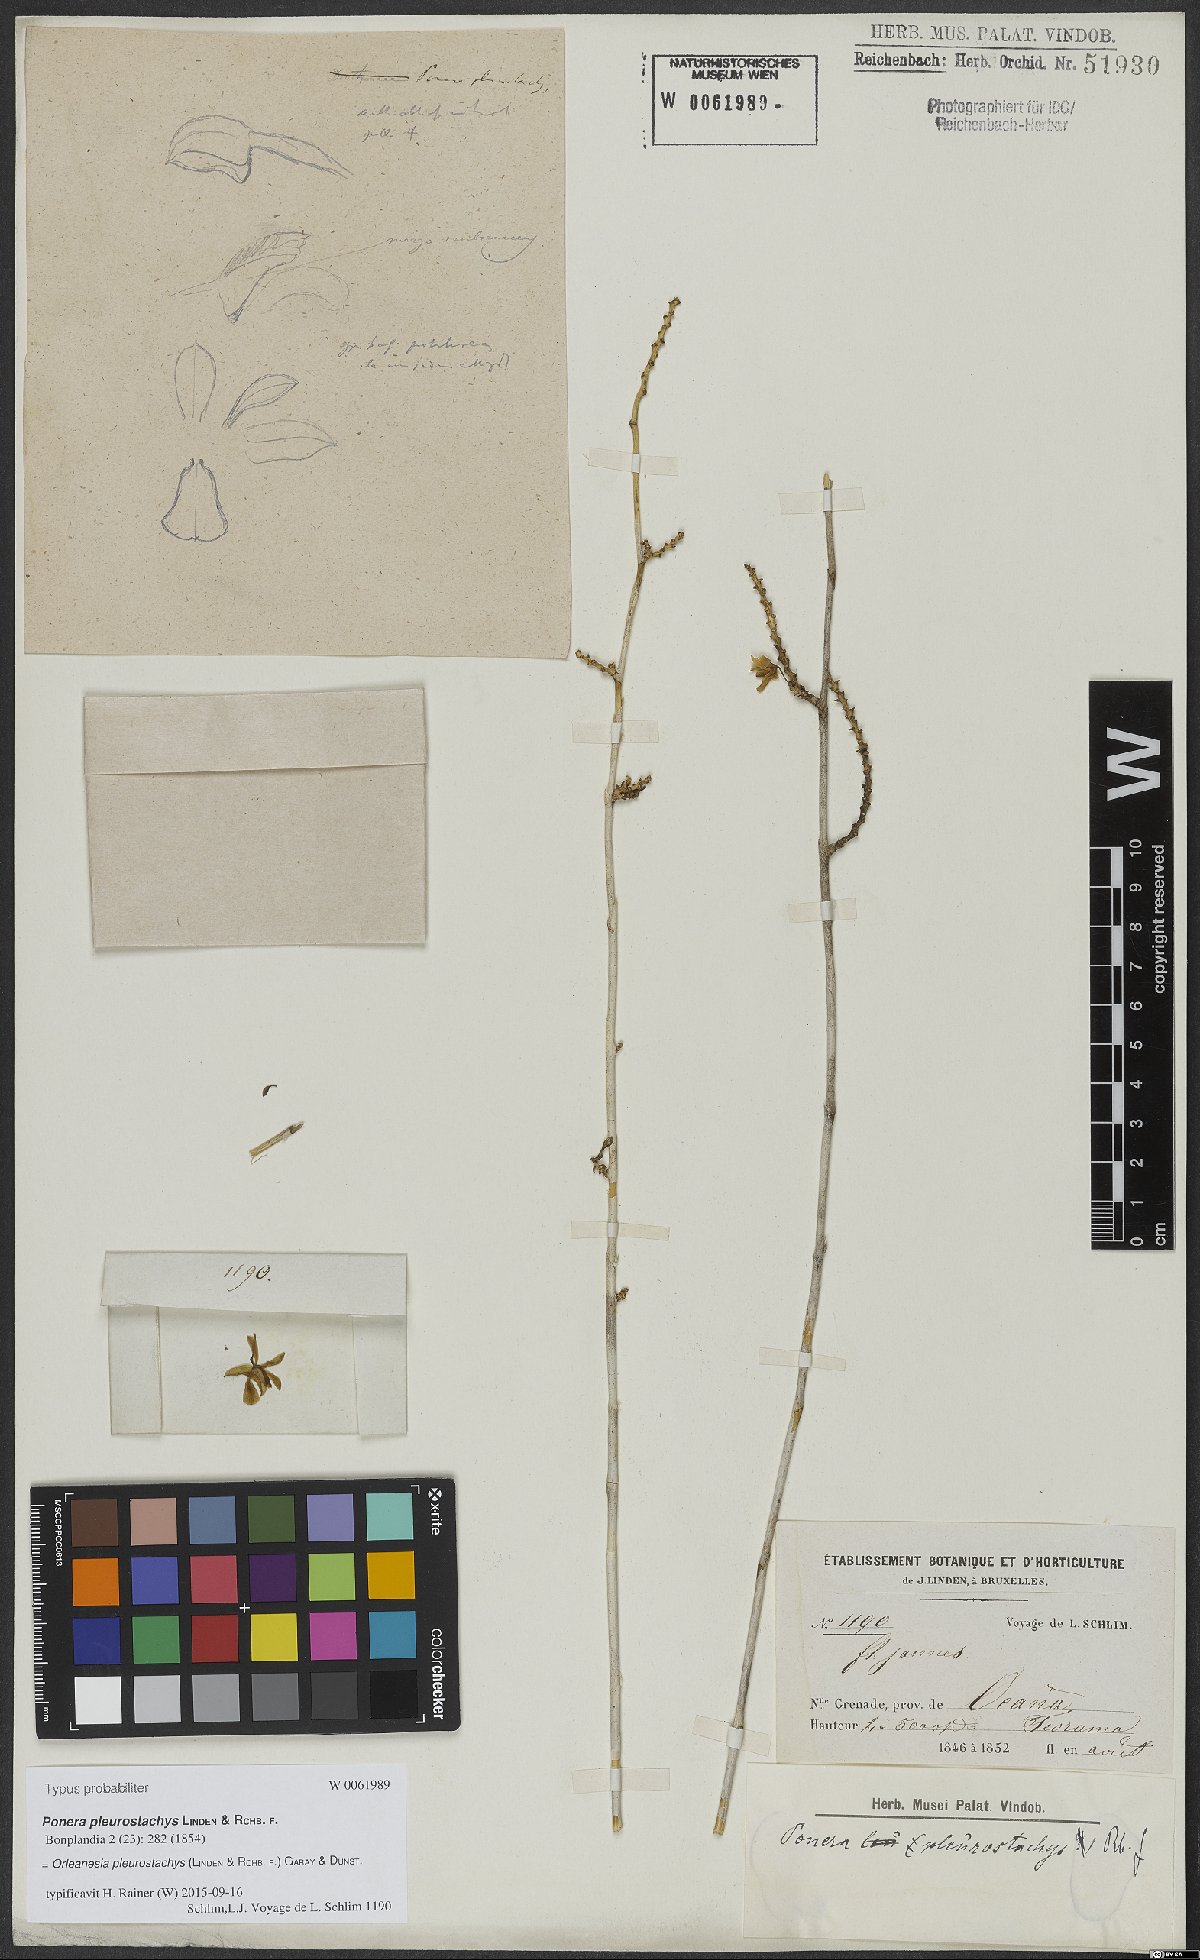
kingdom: Plantae
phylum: Tracheophyta
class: Liliopsida
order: Asparagales
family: Orchidaceae
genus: Orleanesia
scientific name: Orleanesia pleurostachys
